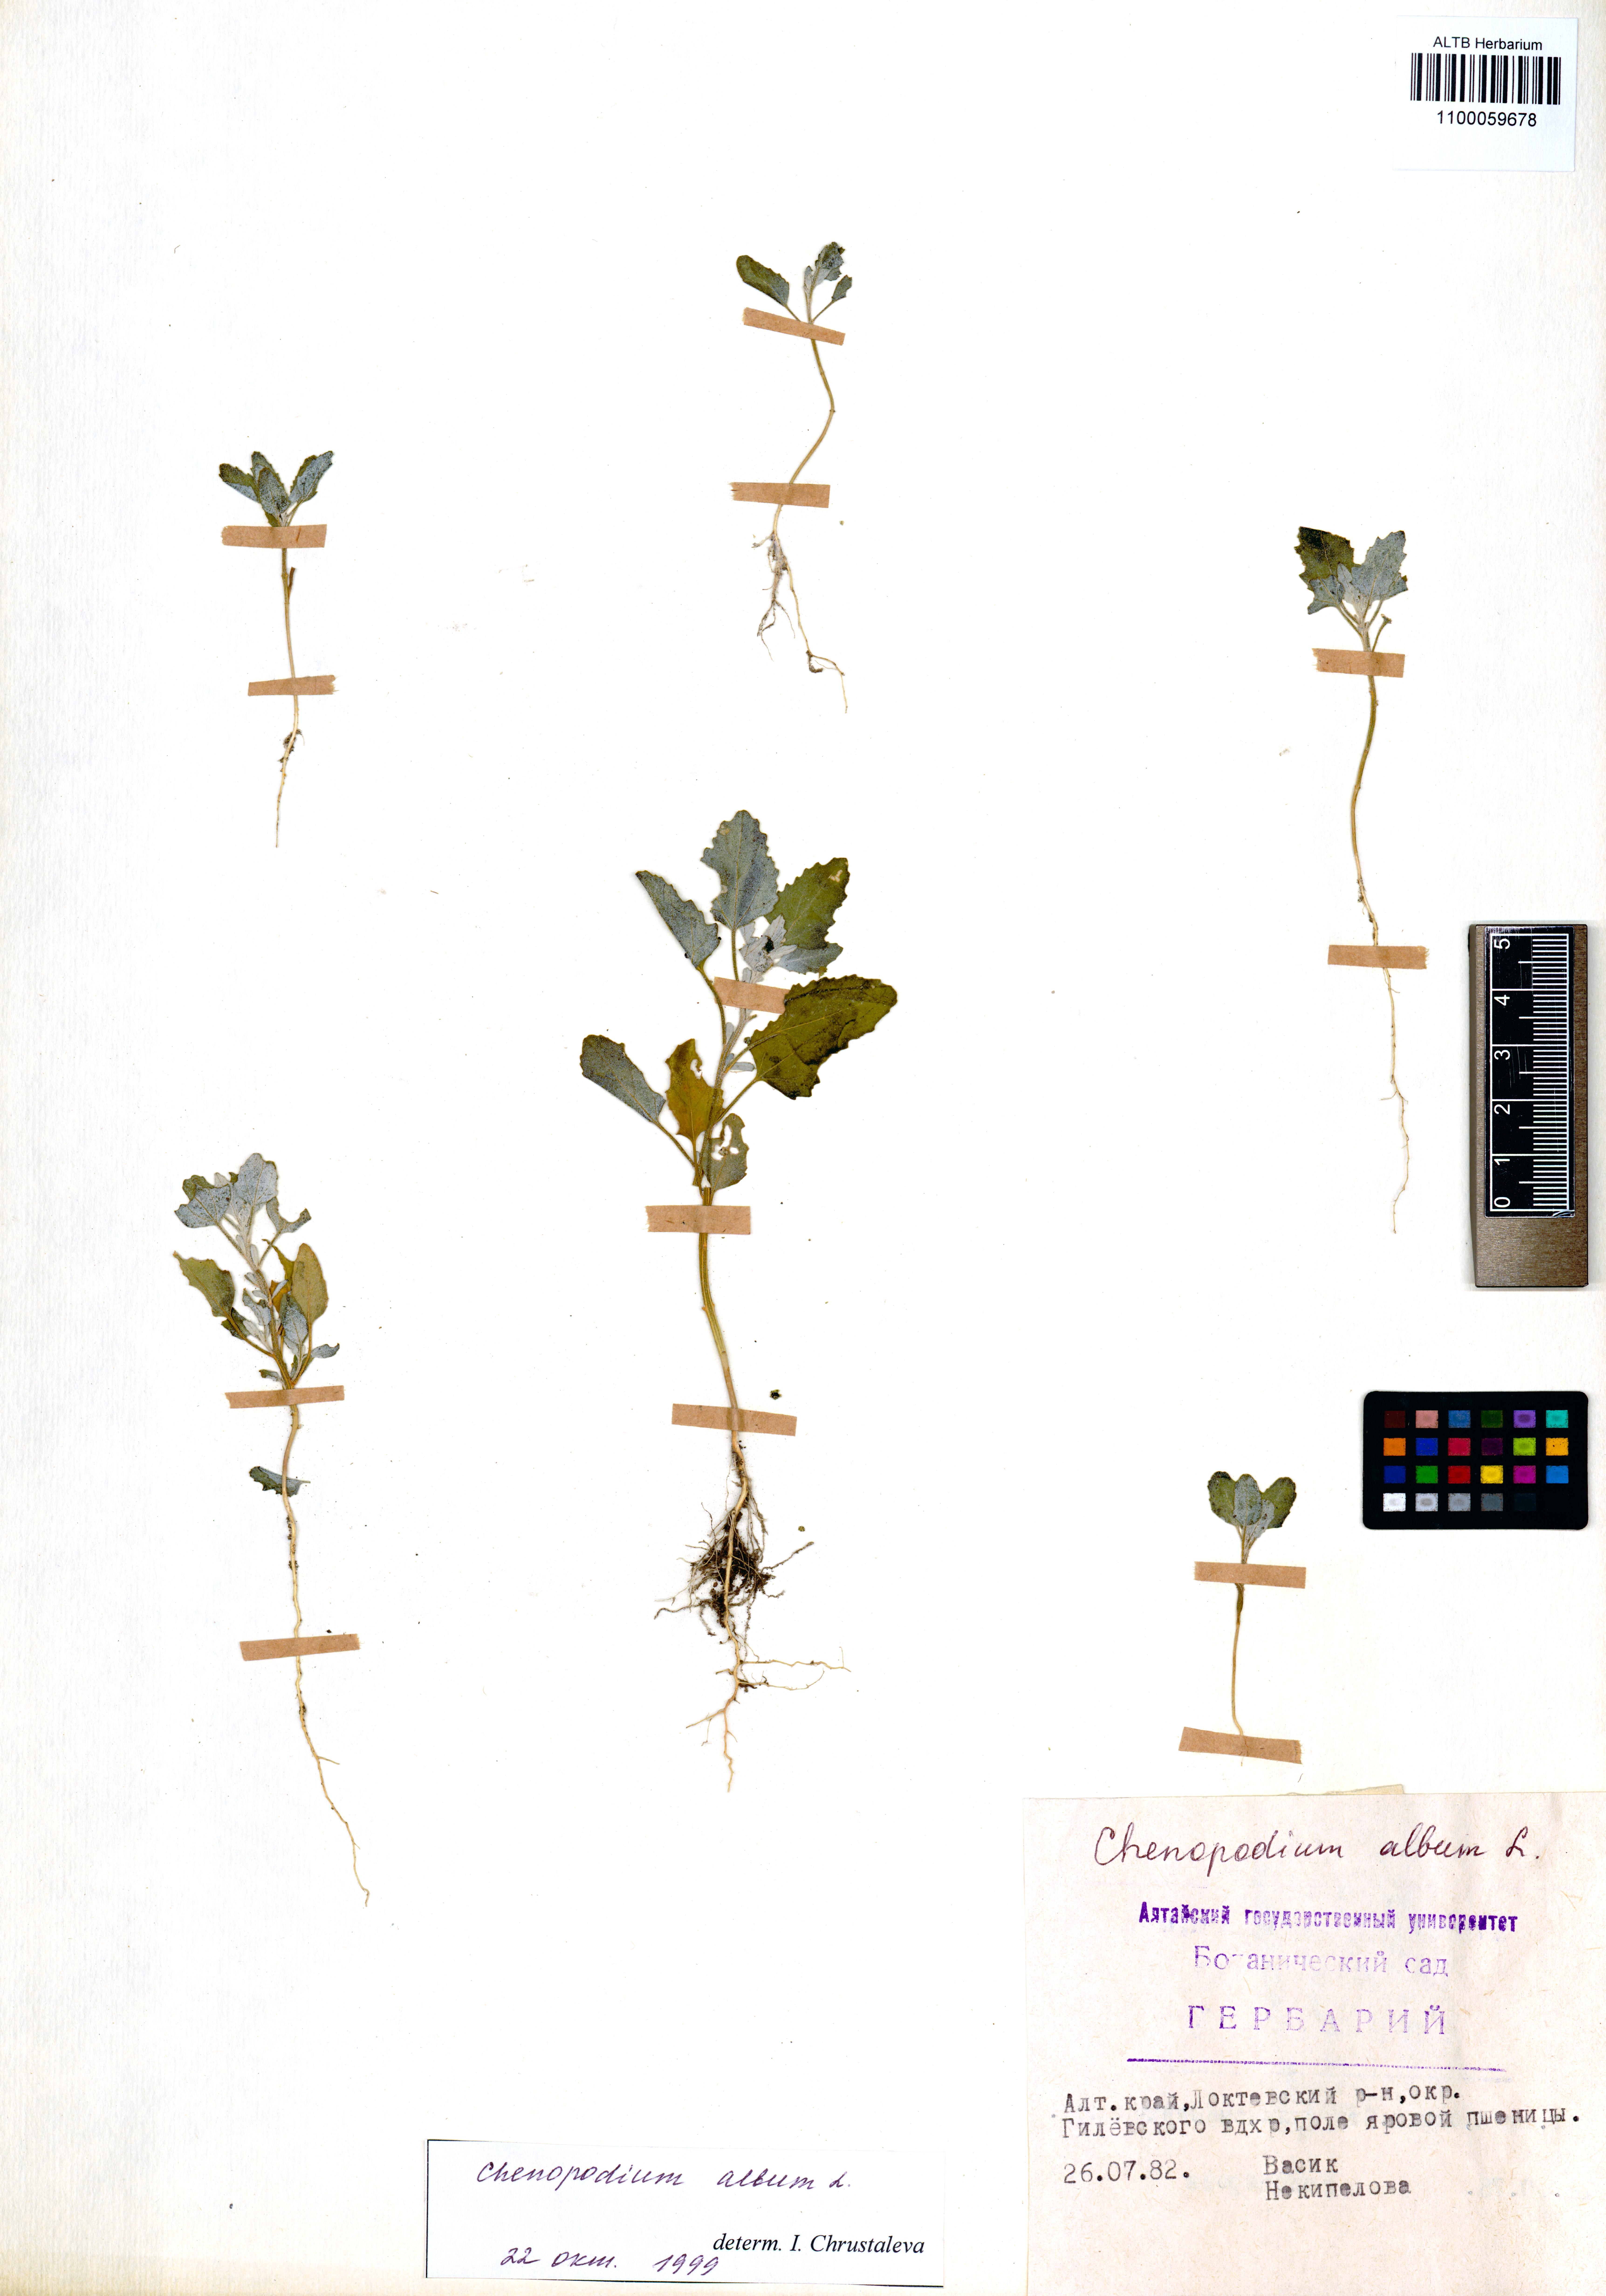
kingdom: Plantae
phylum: Tracheophyta
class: Magnoliopsida
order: Caryophyllales
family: Amaranthaceae
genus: Chenopodium
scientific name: Chenopodium album
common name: Fat-hen
